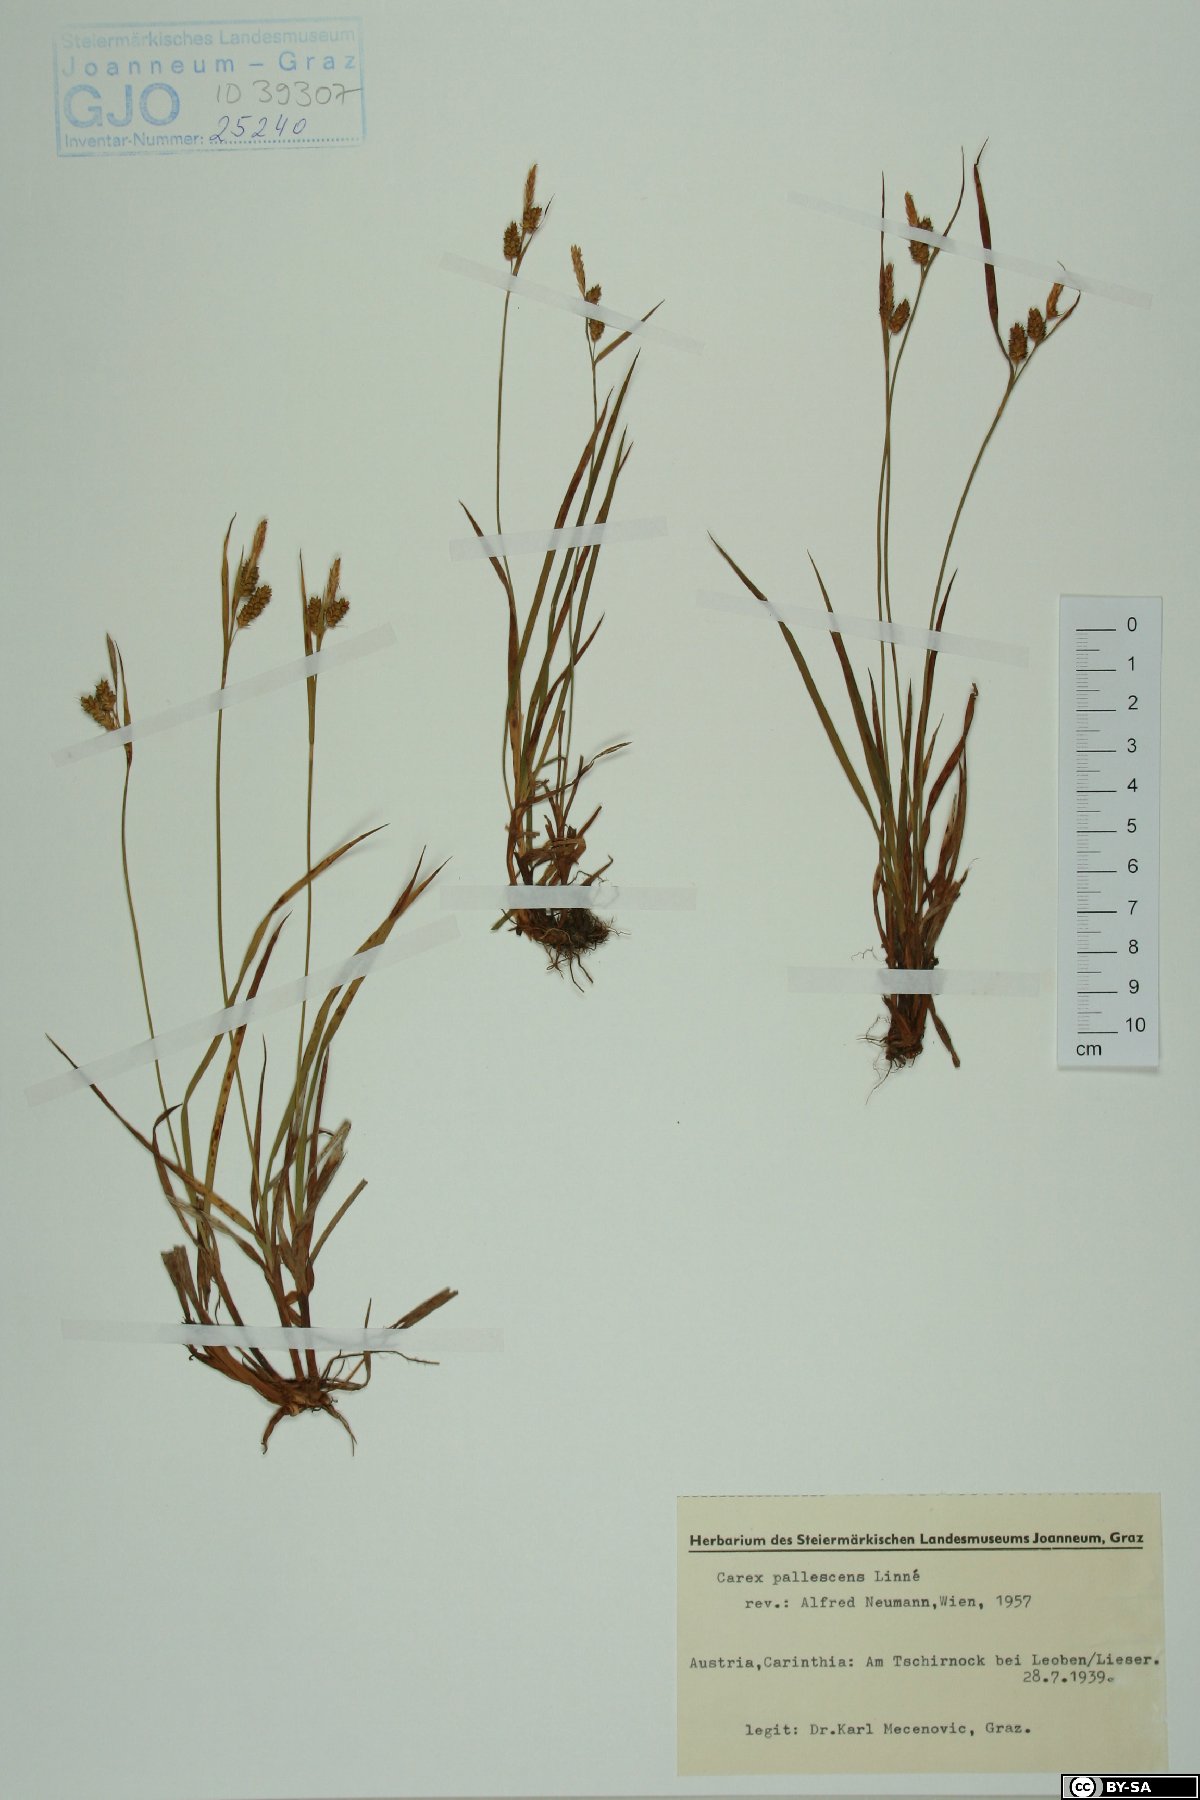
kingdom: Plantae
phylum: Tracheophyta
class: Liliopsida
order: Poales
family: Cyperaceae
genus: Carex
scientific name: Carex pallescens
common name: Pale sedge
